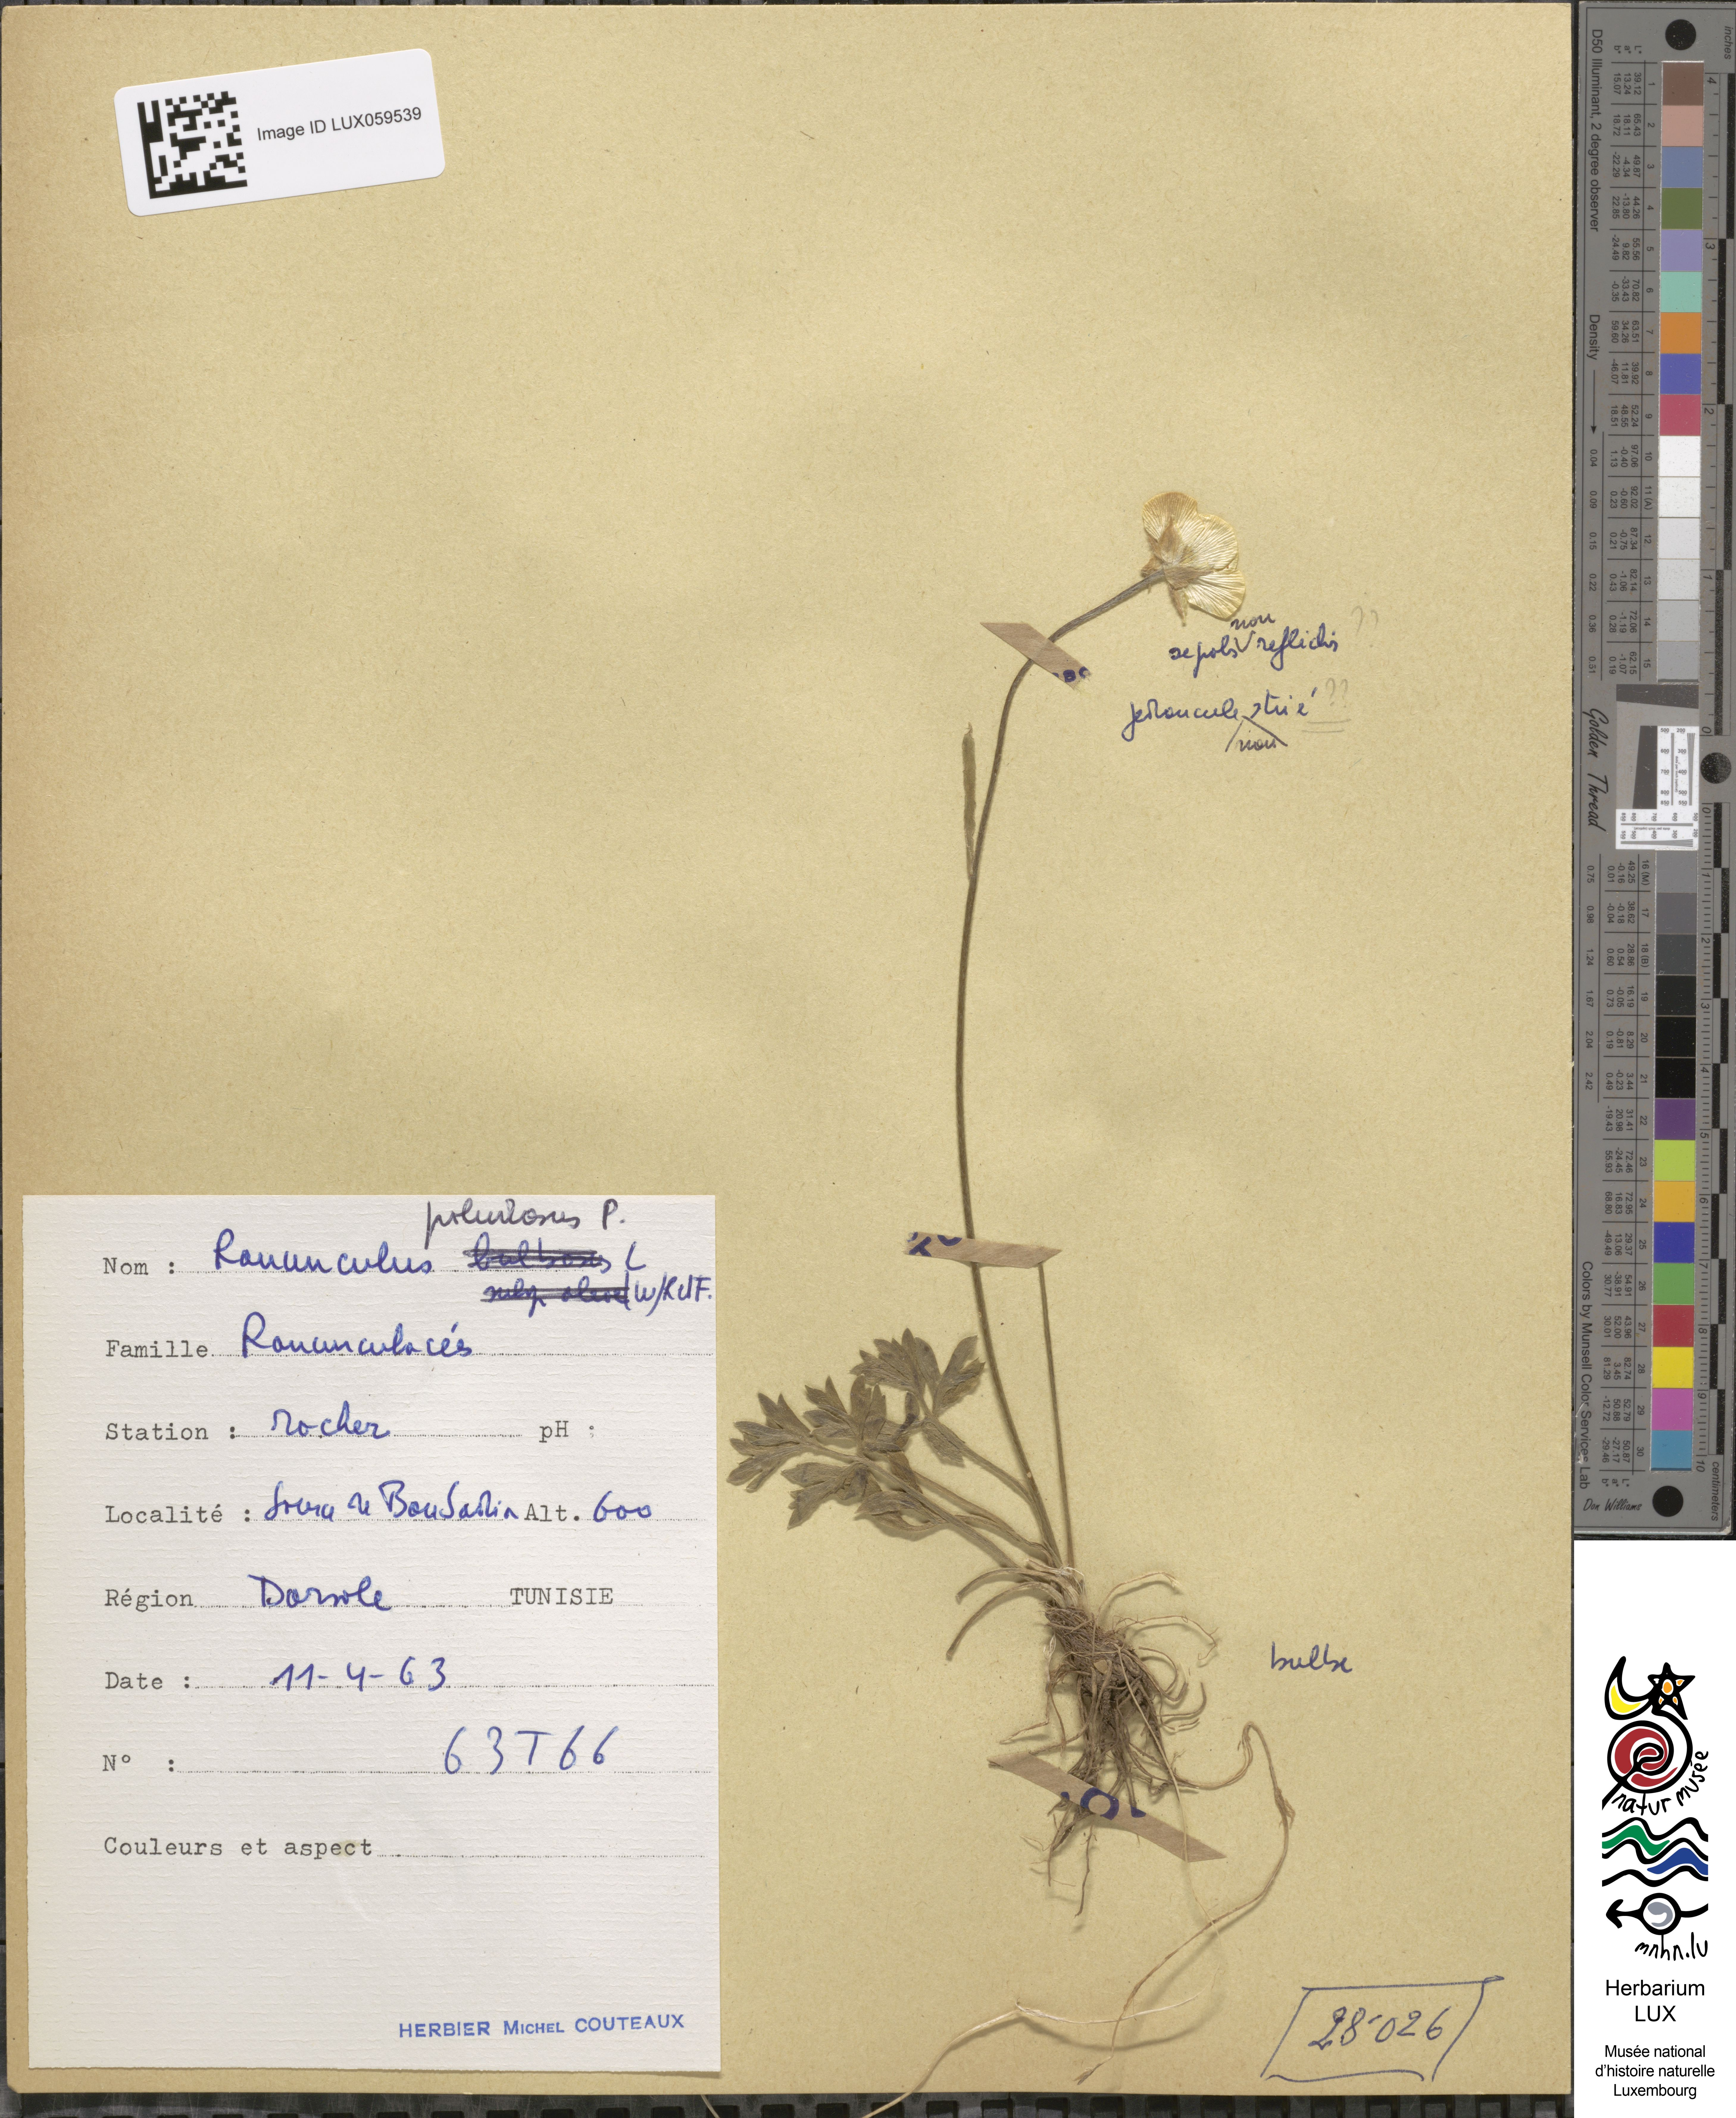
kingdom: Plantae
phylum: Tracheophyta
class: Magnoliopsida
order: Ranunculales
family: Ranunculaceae
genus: Ranunculus
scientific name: Ranunculus paludosus
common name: Jersey buttercup
